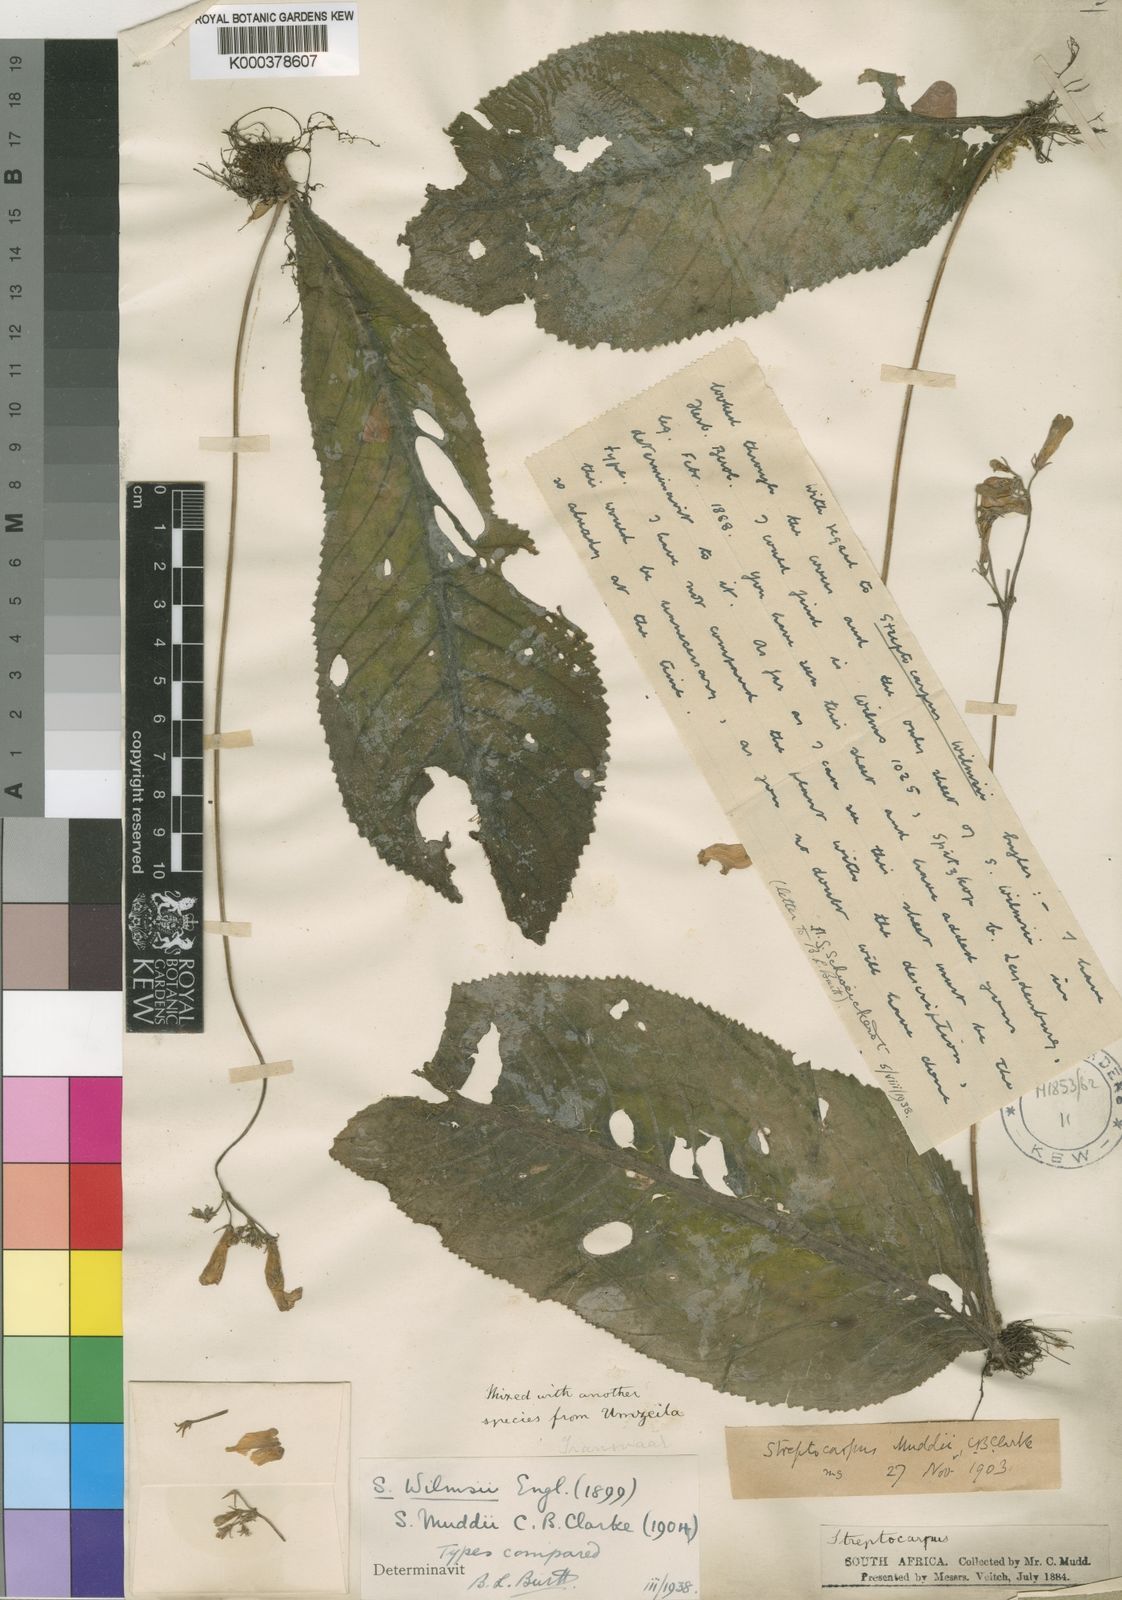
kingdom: Plantae
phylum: Tracheophyta
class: Magnoliopsida
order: Lamiales
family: Gesneriaceae
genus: Streptocarpus
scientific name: Streptocarpus wilmsii
